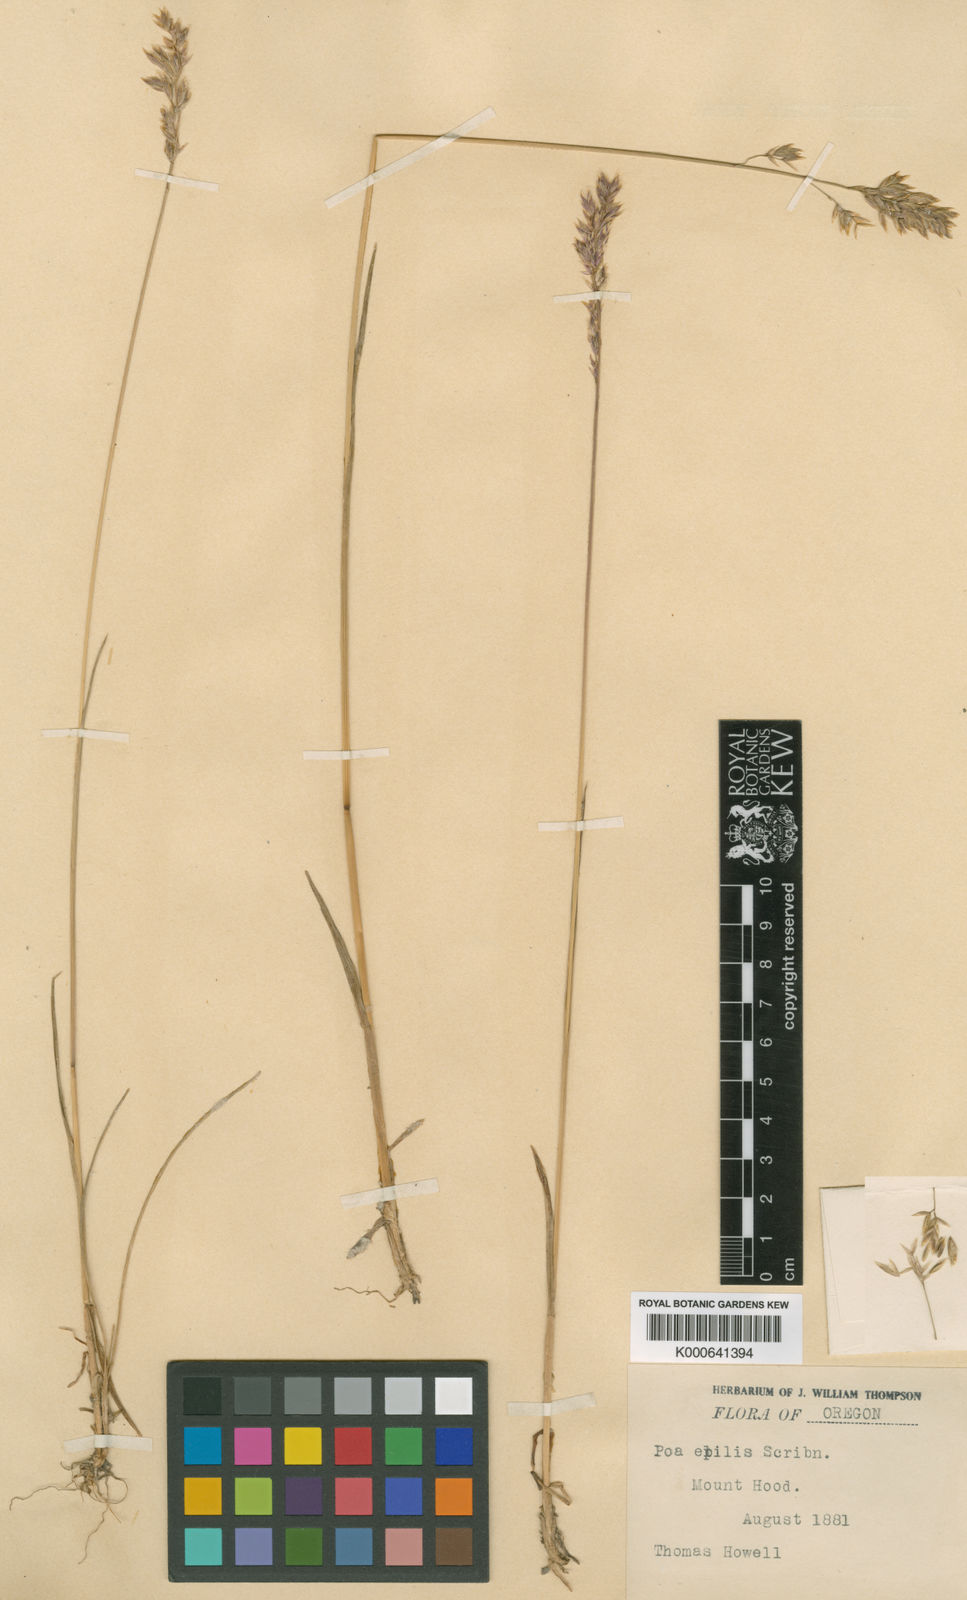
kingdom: Plantae
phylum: Tracheophyta
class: Liliopsida
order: Poales
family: Poaceae
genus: Poa
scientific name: Poa cusickii
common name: Cusick's bluegrass
